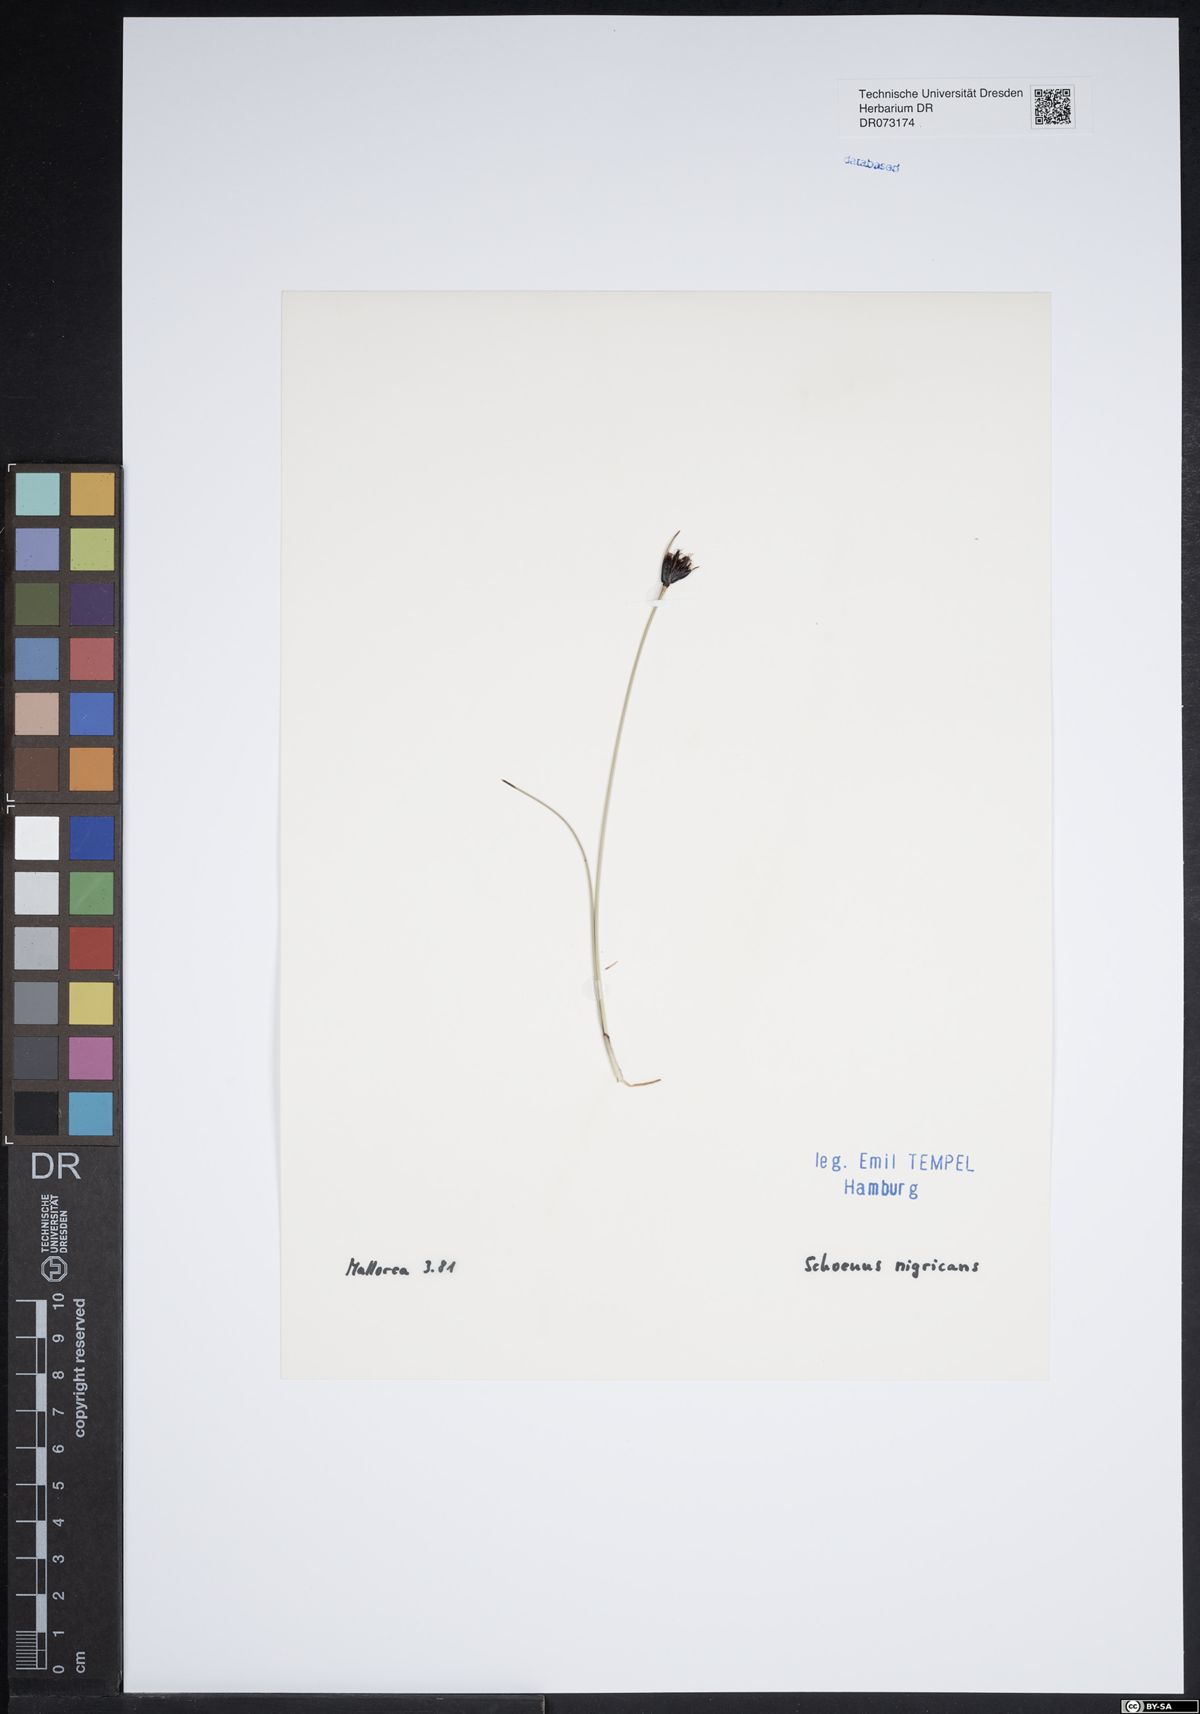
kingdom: Plantae
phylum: Tracheophyta
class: Liliopsida
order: Poales
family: Cyperaceae
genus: Schoenus
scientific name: Schoenus nigricans
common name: Black bog-rush
